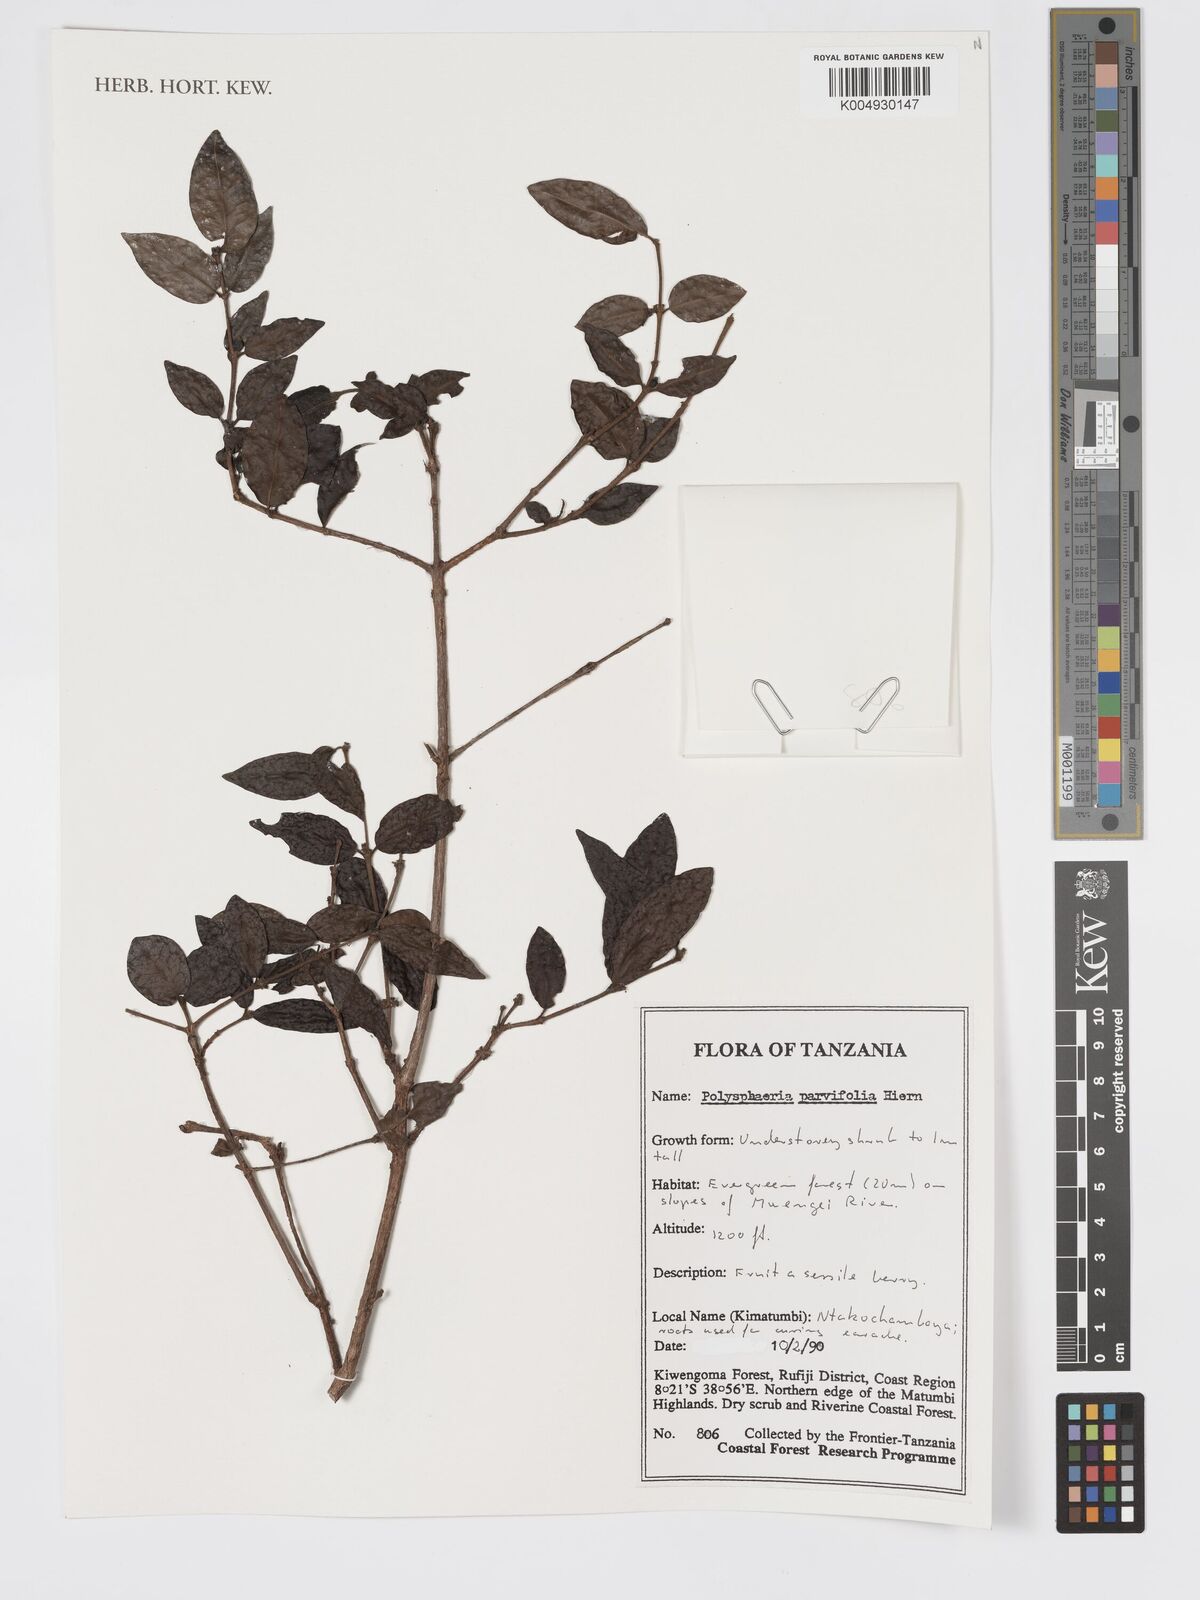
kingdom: Plantae
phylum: Tracheophyta
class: Magnoliopsida
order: Gentianales
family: Rubiaceae
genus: Polysphaeria
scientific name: Polysphaeria parvifolia
